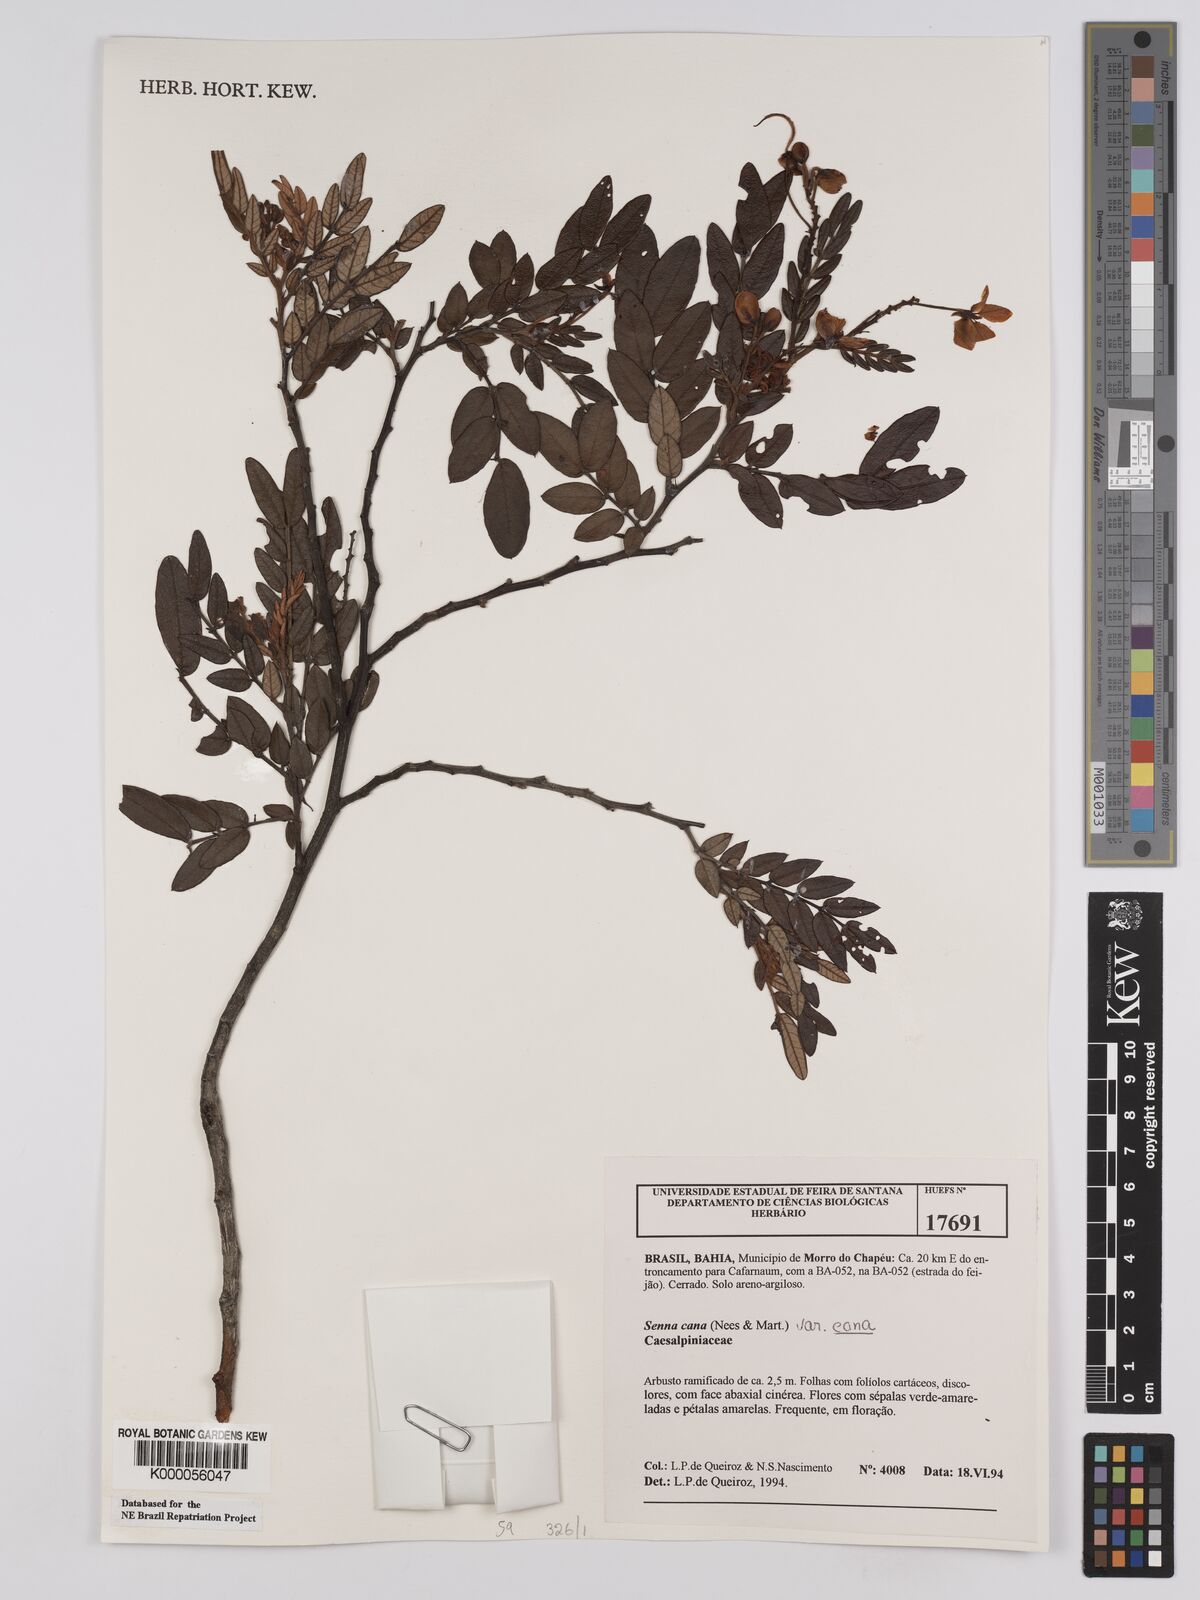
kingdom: Plantae
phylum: Tracheophyta
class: Magnoliopsida
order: Fabales
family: Fabaceae
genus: Senna
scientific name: Senna cana
